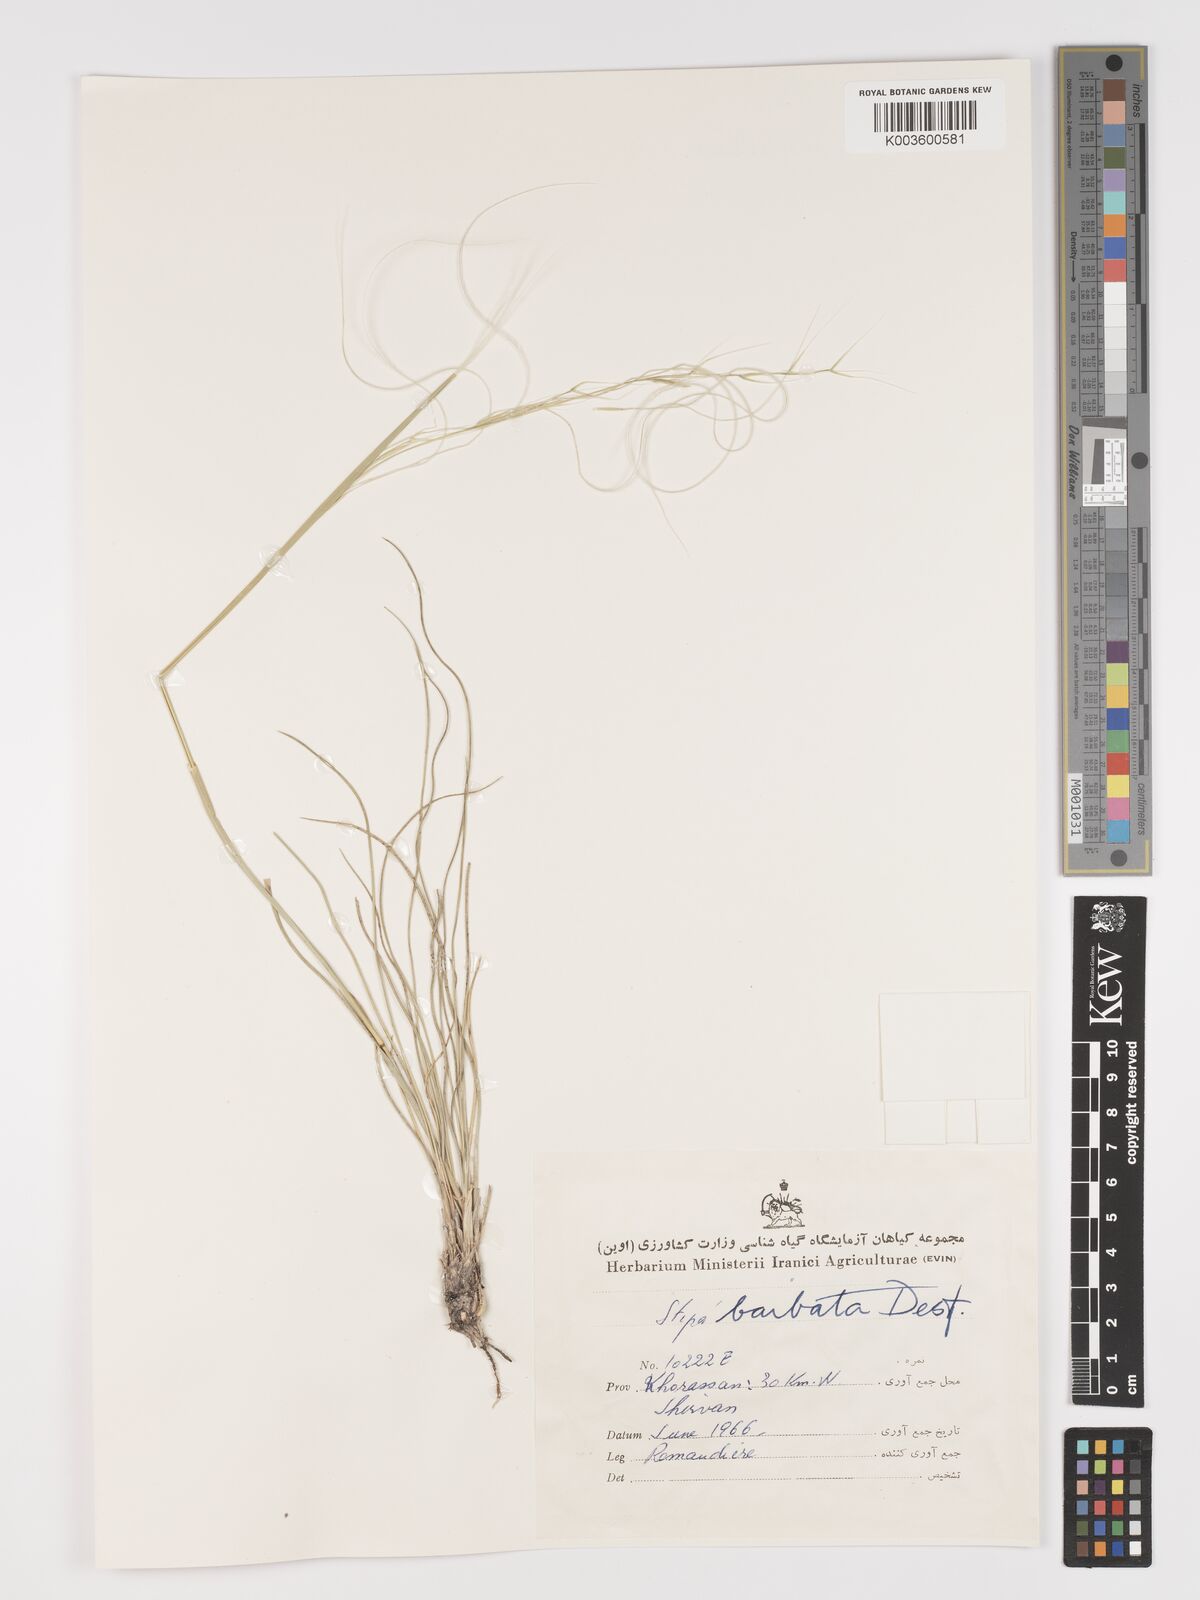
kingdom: Plantae
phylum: Tracheophyta
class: Liliopsida
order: Poales
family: Poaceae
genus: Stipa
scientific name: Stipa barbata
